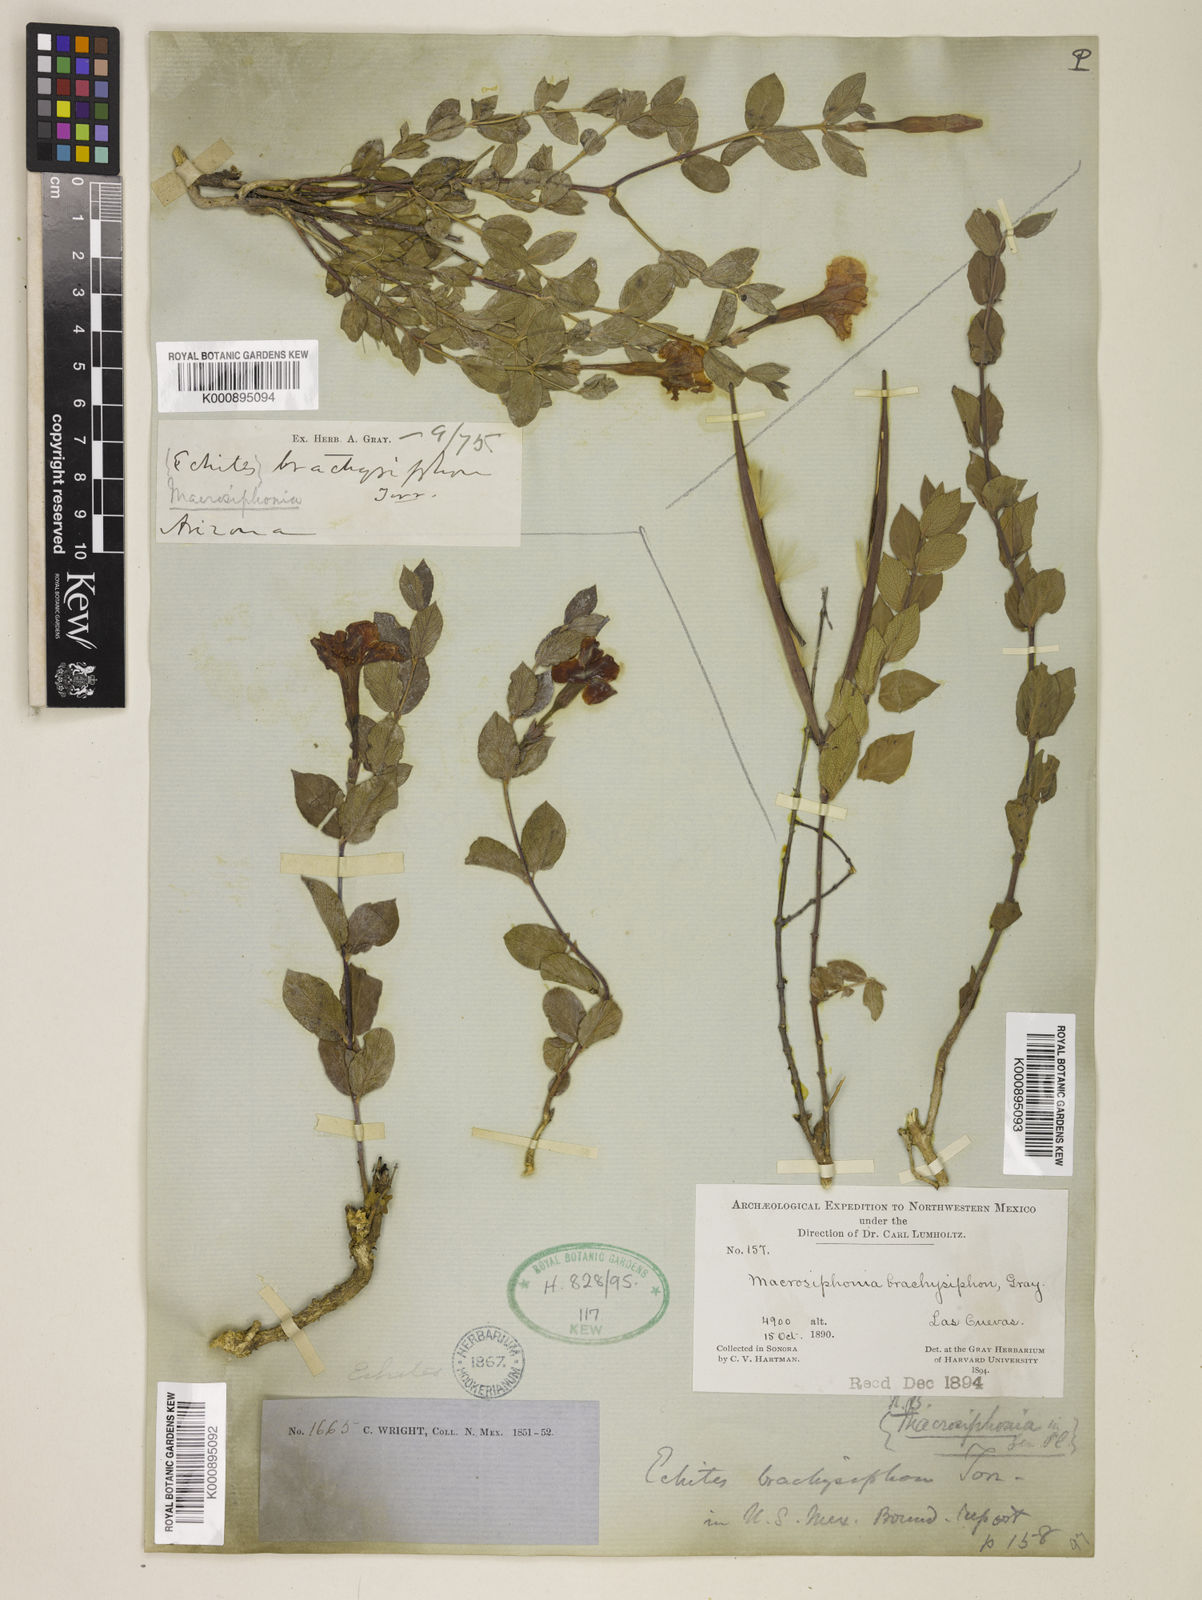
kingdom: Plantae
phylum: Tracheophyta
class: Magnoliopsida
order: Gentianales
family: Apocynaceae
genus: Mandevilla
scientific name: Mandevilla brachysiphon
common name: Huachuca mountain rocktrumpet
